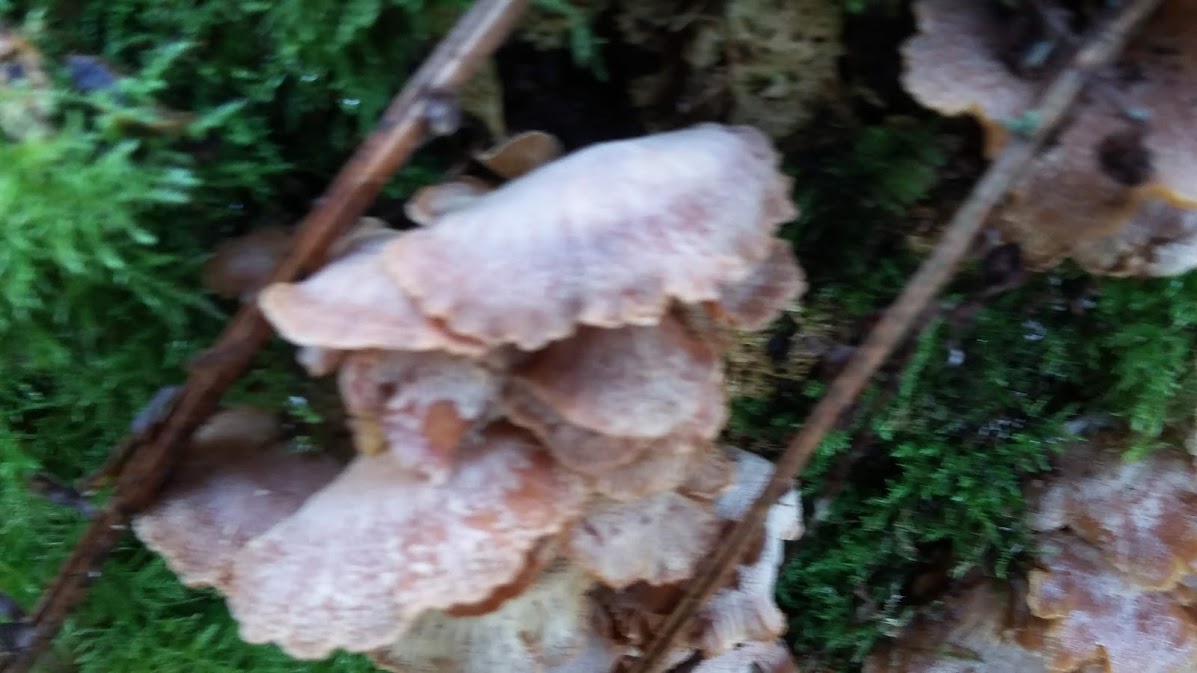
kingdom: Fungi
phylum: Basidiomycota
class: Agaricomycetes
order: Agaricales
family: Mycenaceae
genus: Panellus
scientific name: Panellus stipticus
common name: kliddet epaulethat
